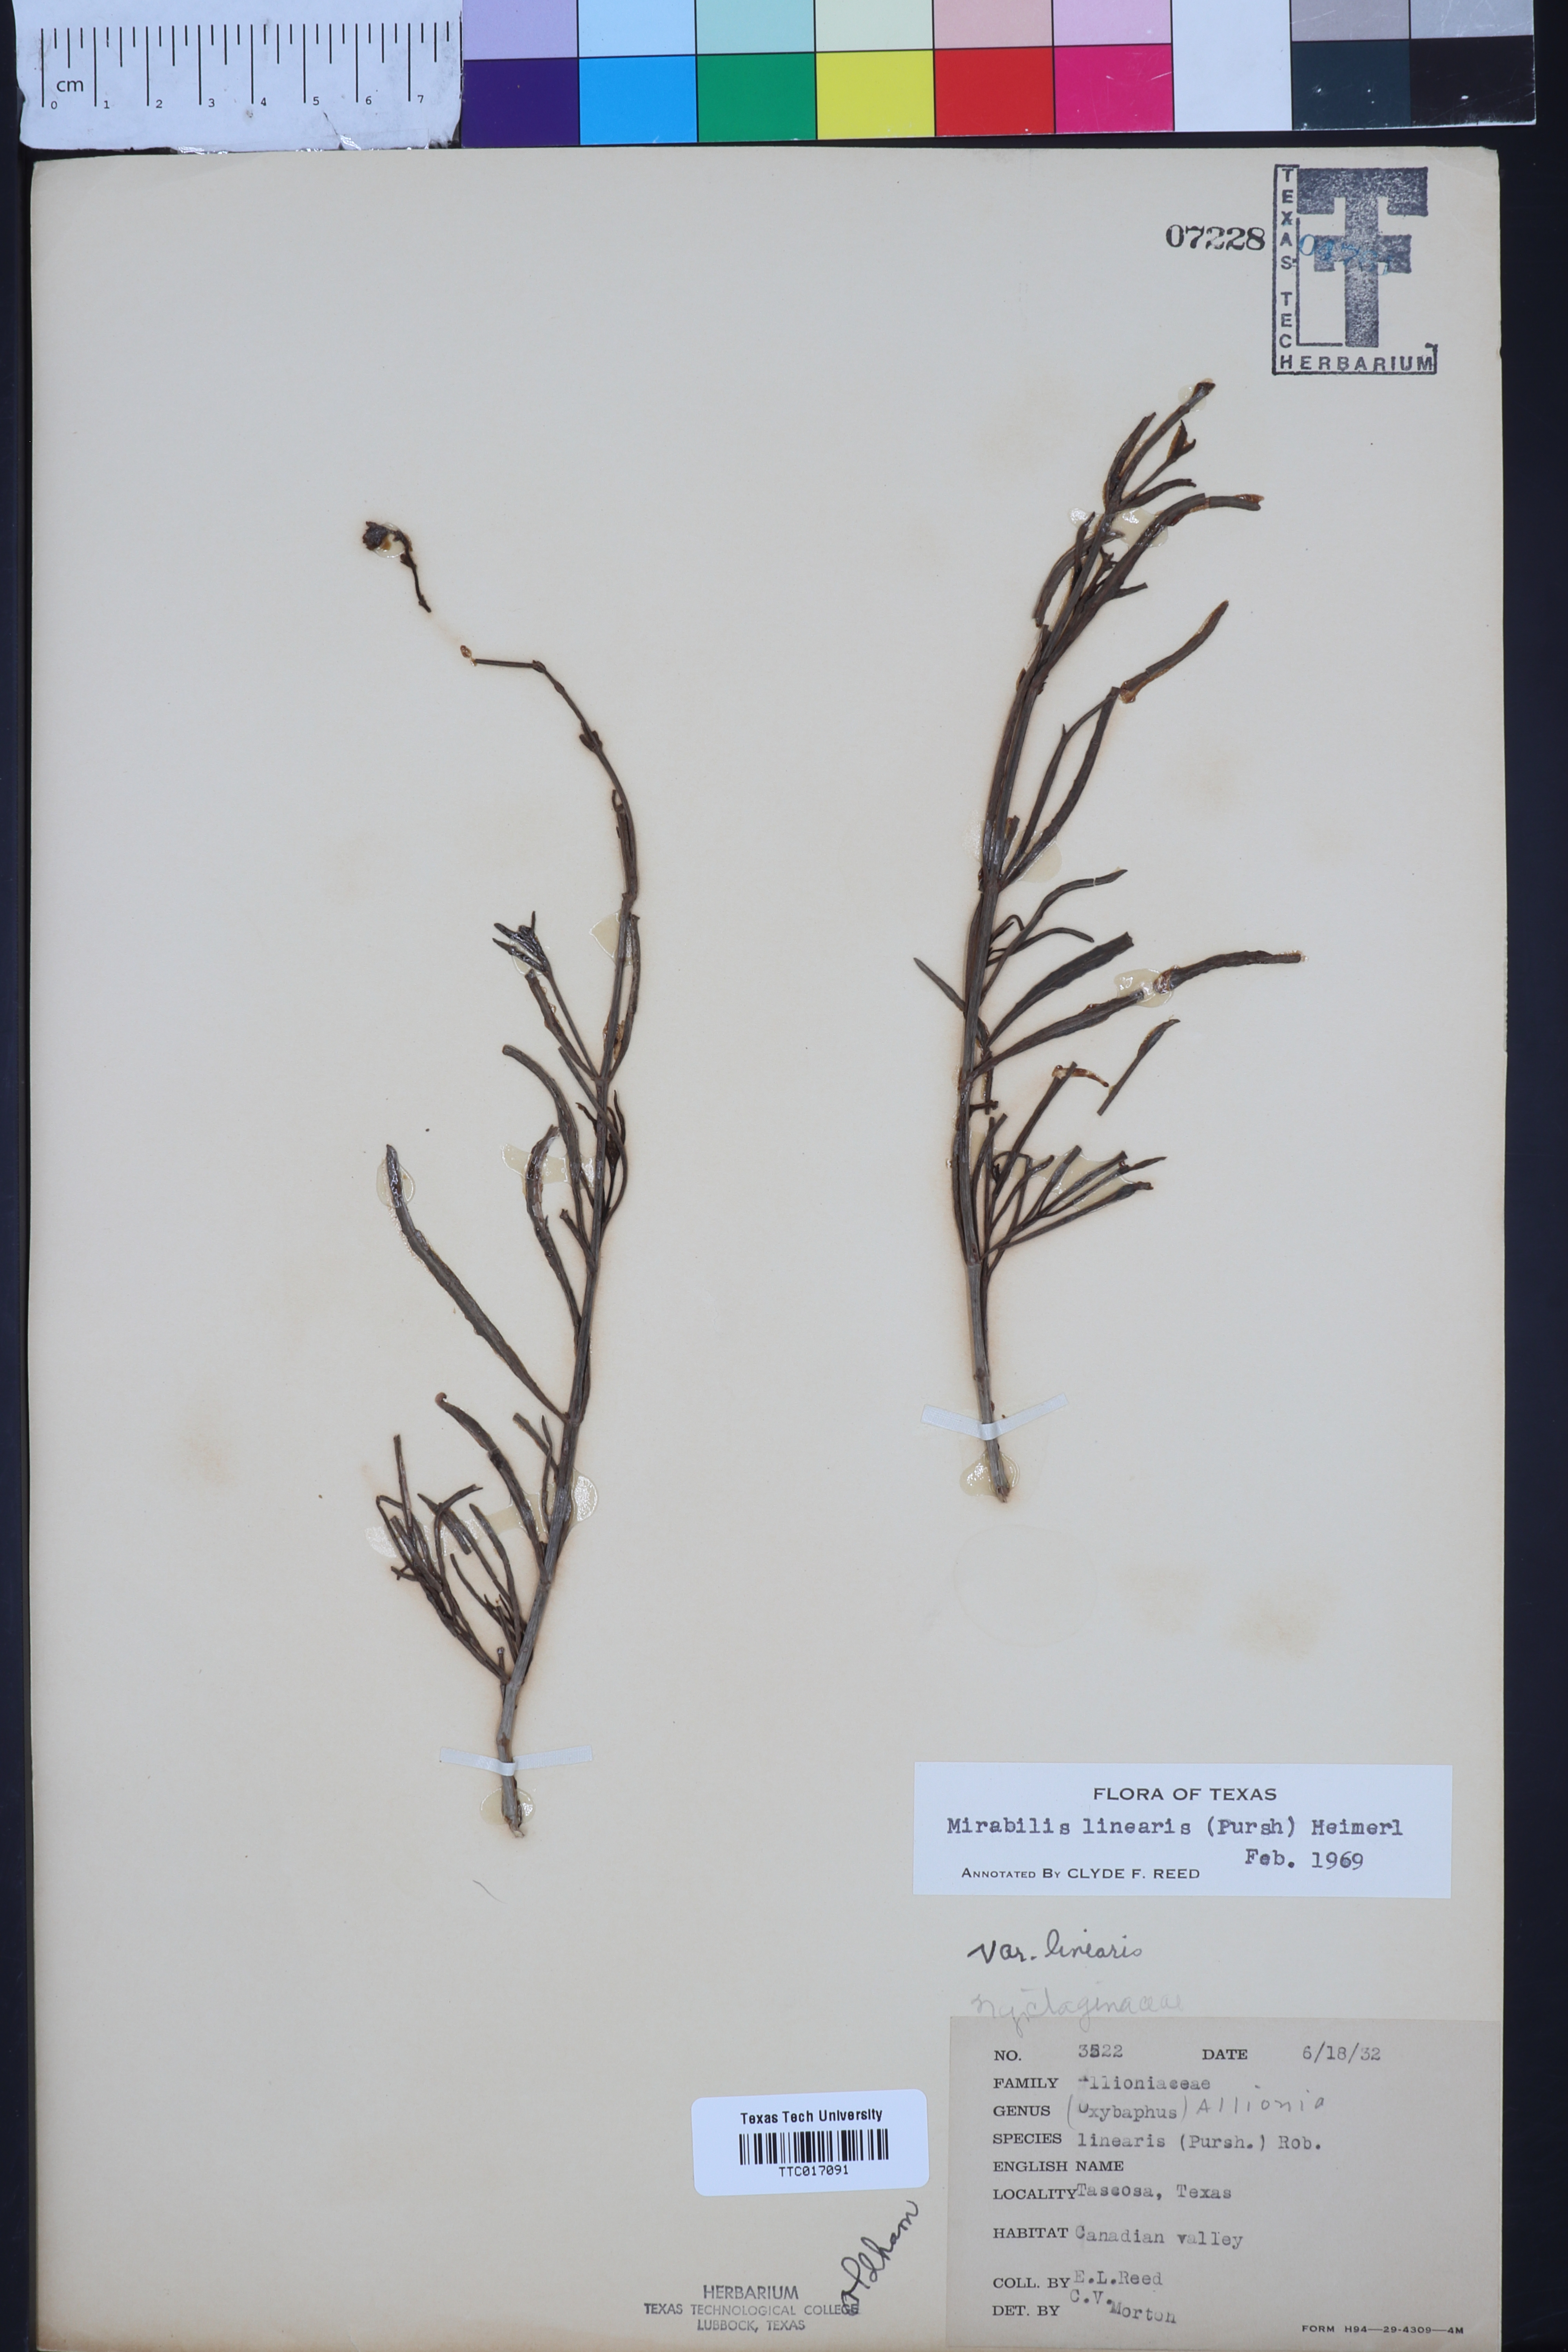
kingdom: Plantae
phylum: Tracheophyta
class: Magnoliopsida
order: Caryophyllales
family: Nyctaginaceae
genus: Mirabilis
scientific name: Mirabilis linearis
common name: Linear-leaved four-o'clock
